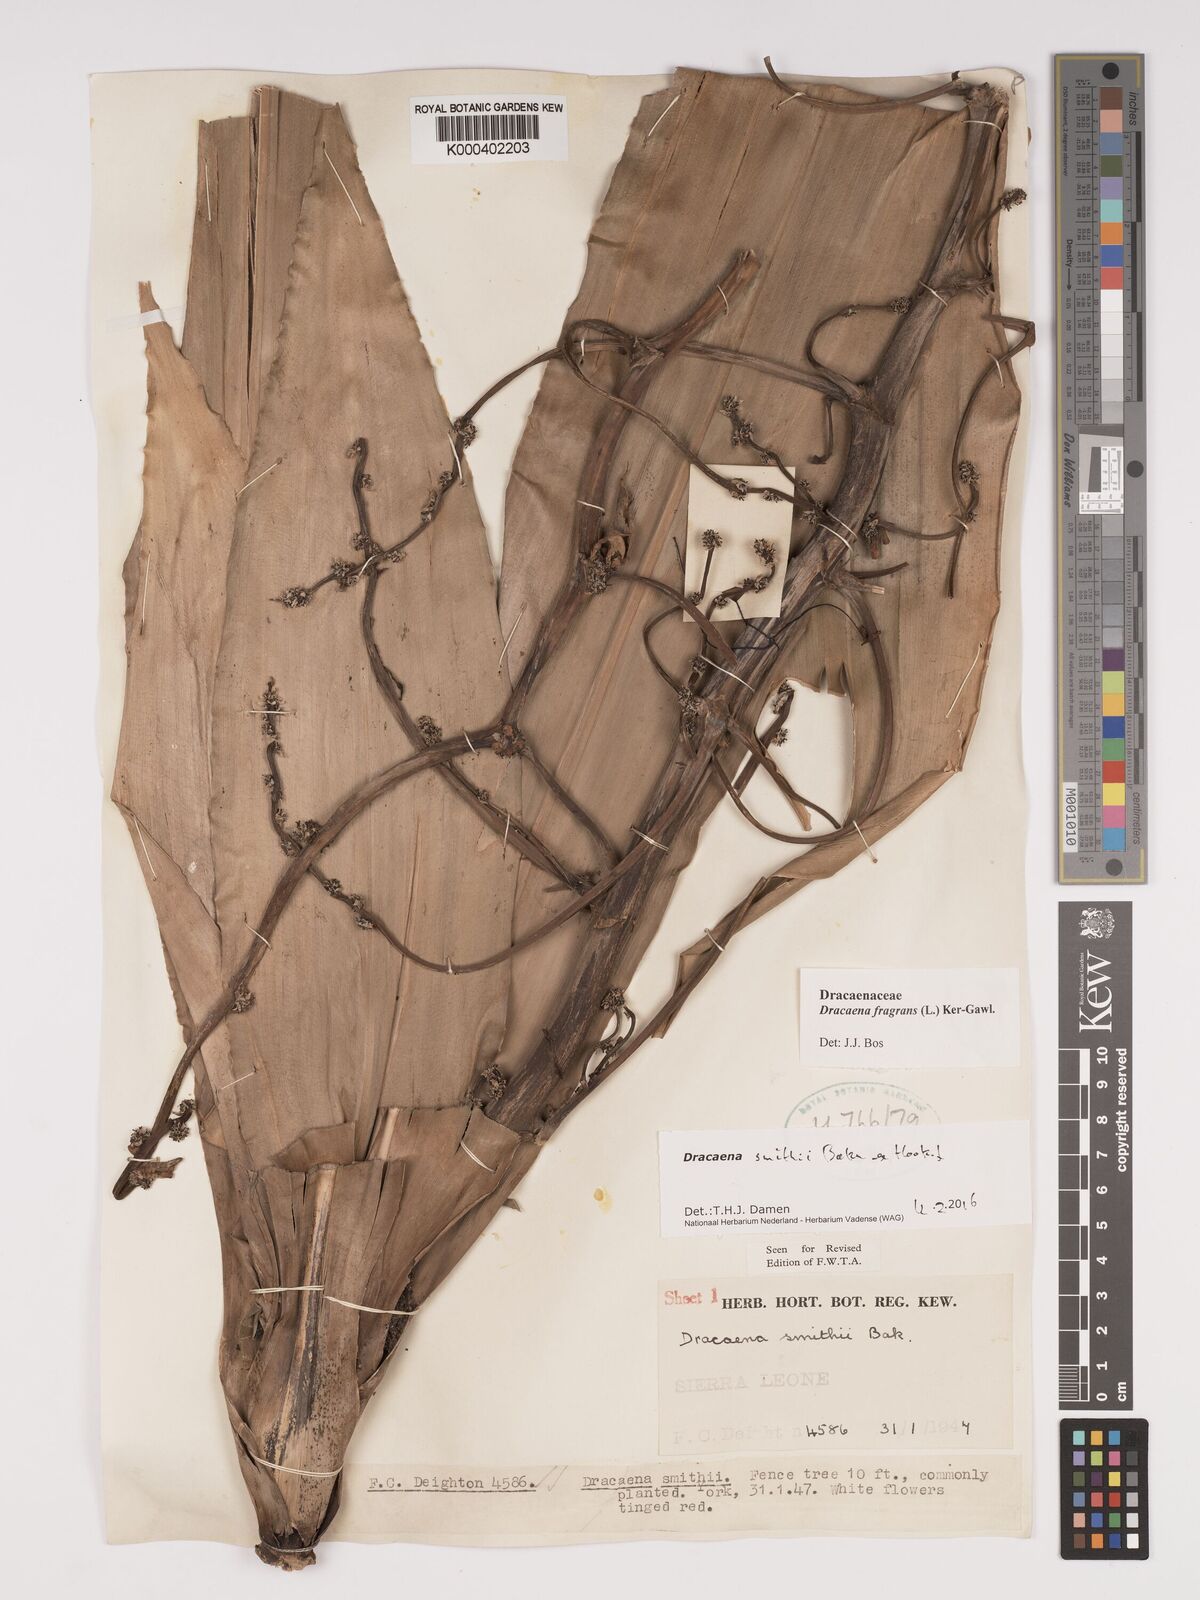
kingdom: Plantae
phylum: Tracheophyta
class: Liliopsida
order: Asparagales
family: Asparagaceae
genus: Dracaena
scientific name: Dracaena fragrans
